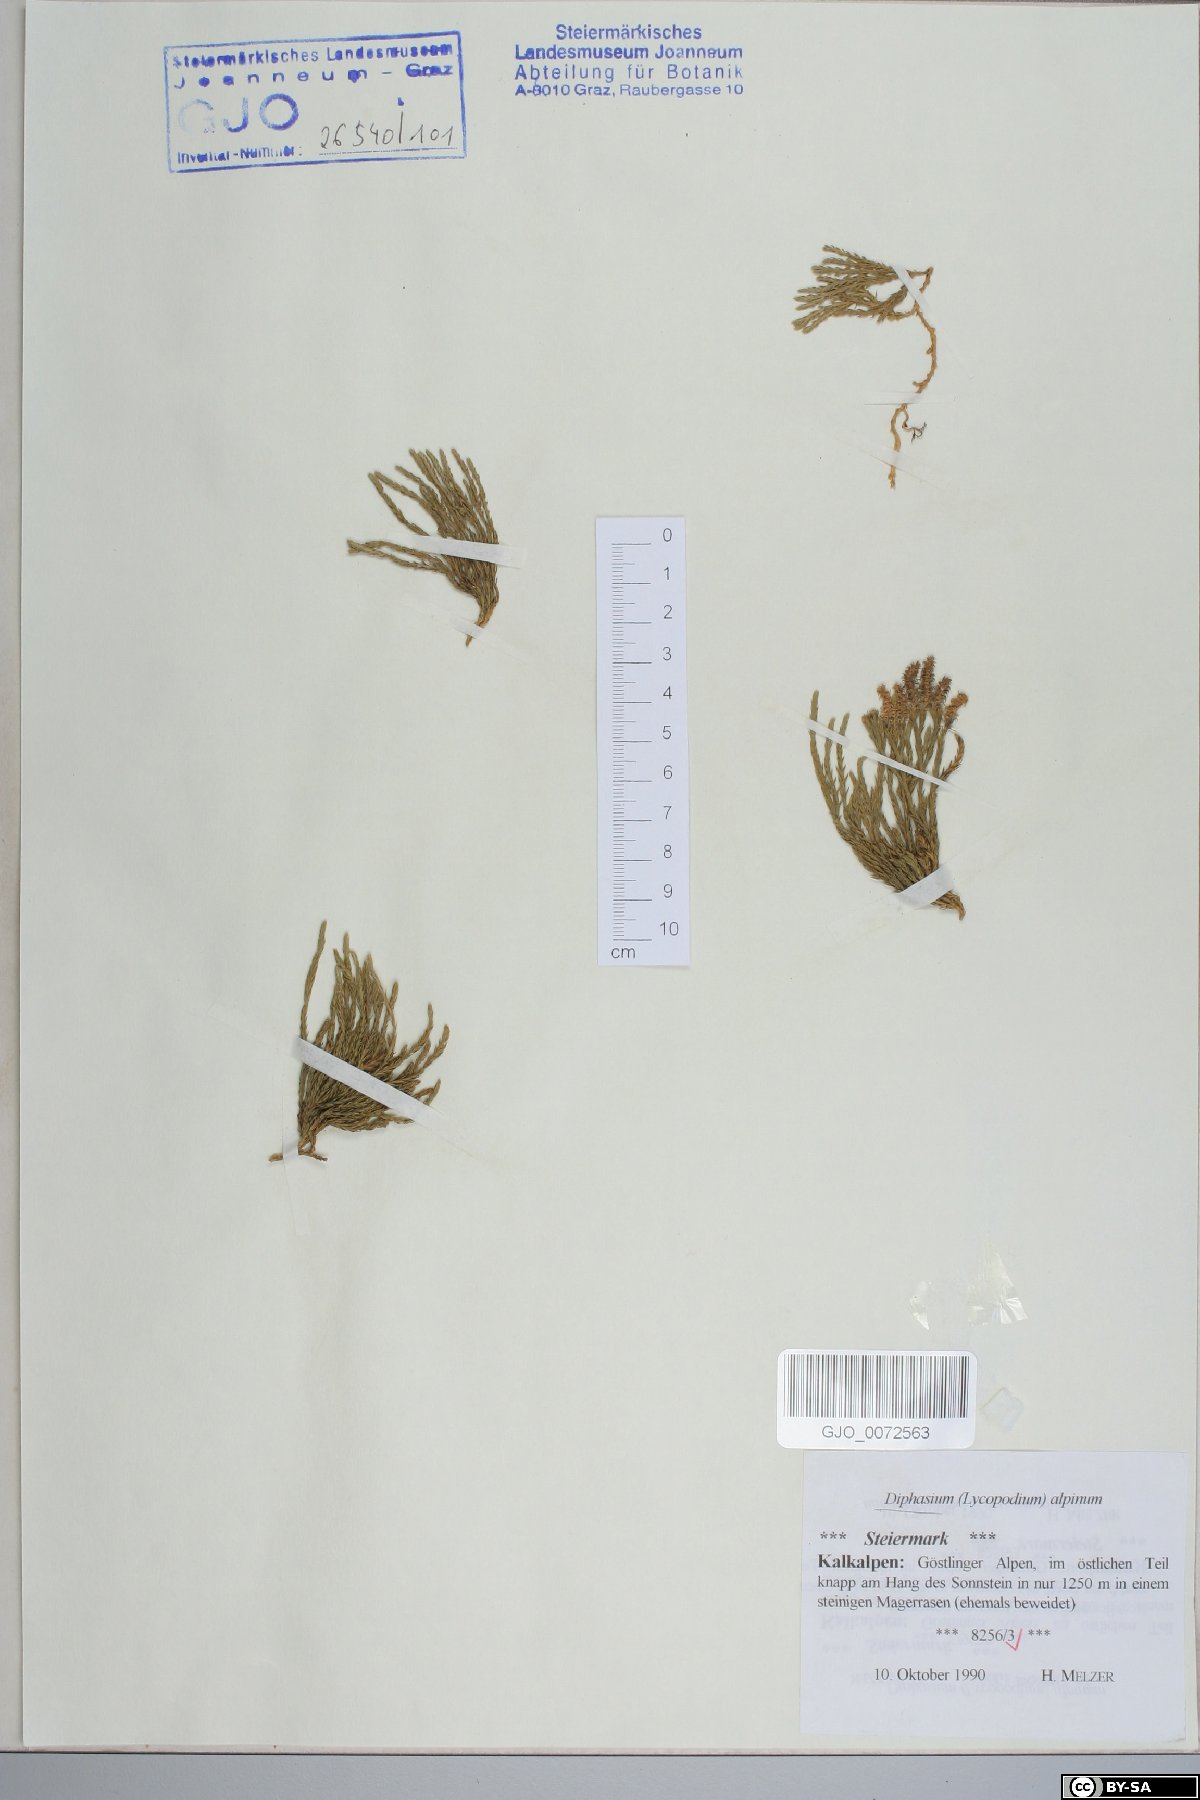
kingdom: Plantae
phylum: Tracheophyta
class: Lycopodiopsida
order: Lycopodiales
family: Lycopodiaceae
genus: Diphasiastrum
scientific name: Diphasiastrum alpinum
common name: Alpine clubmoss
